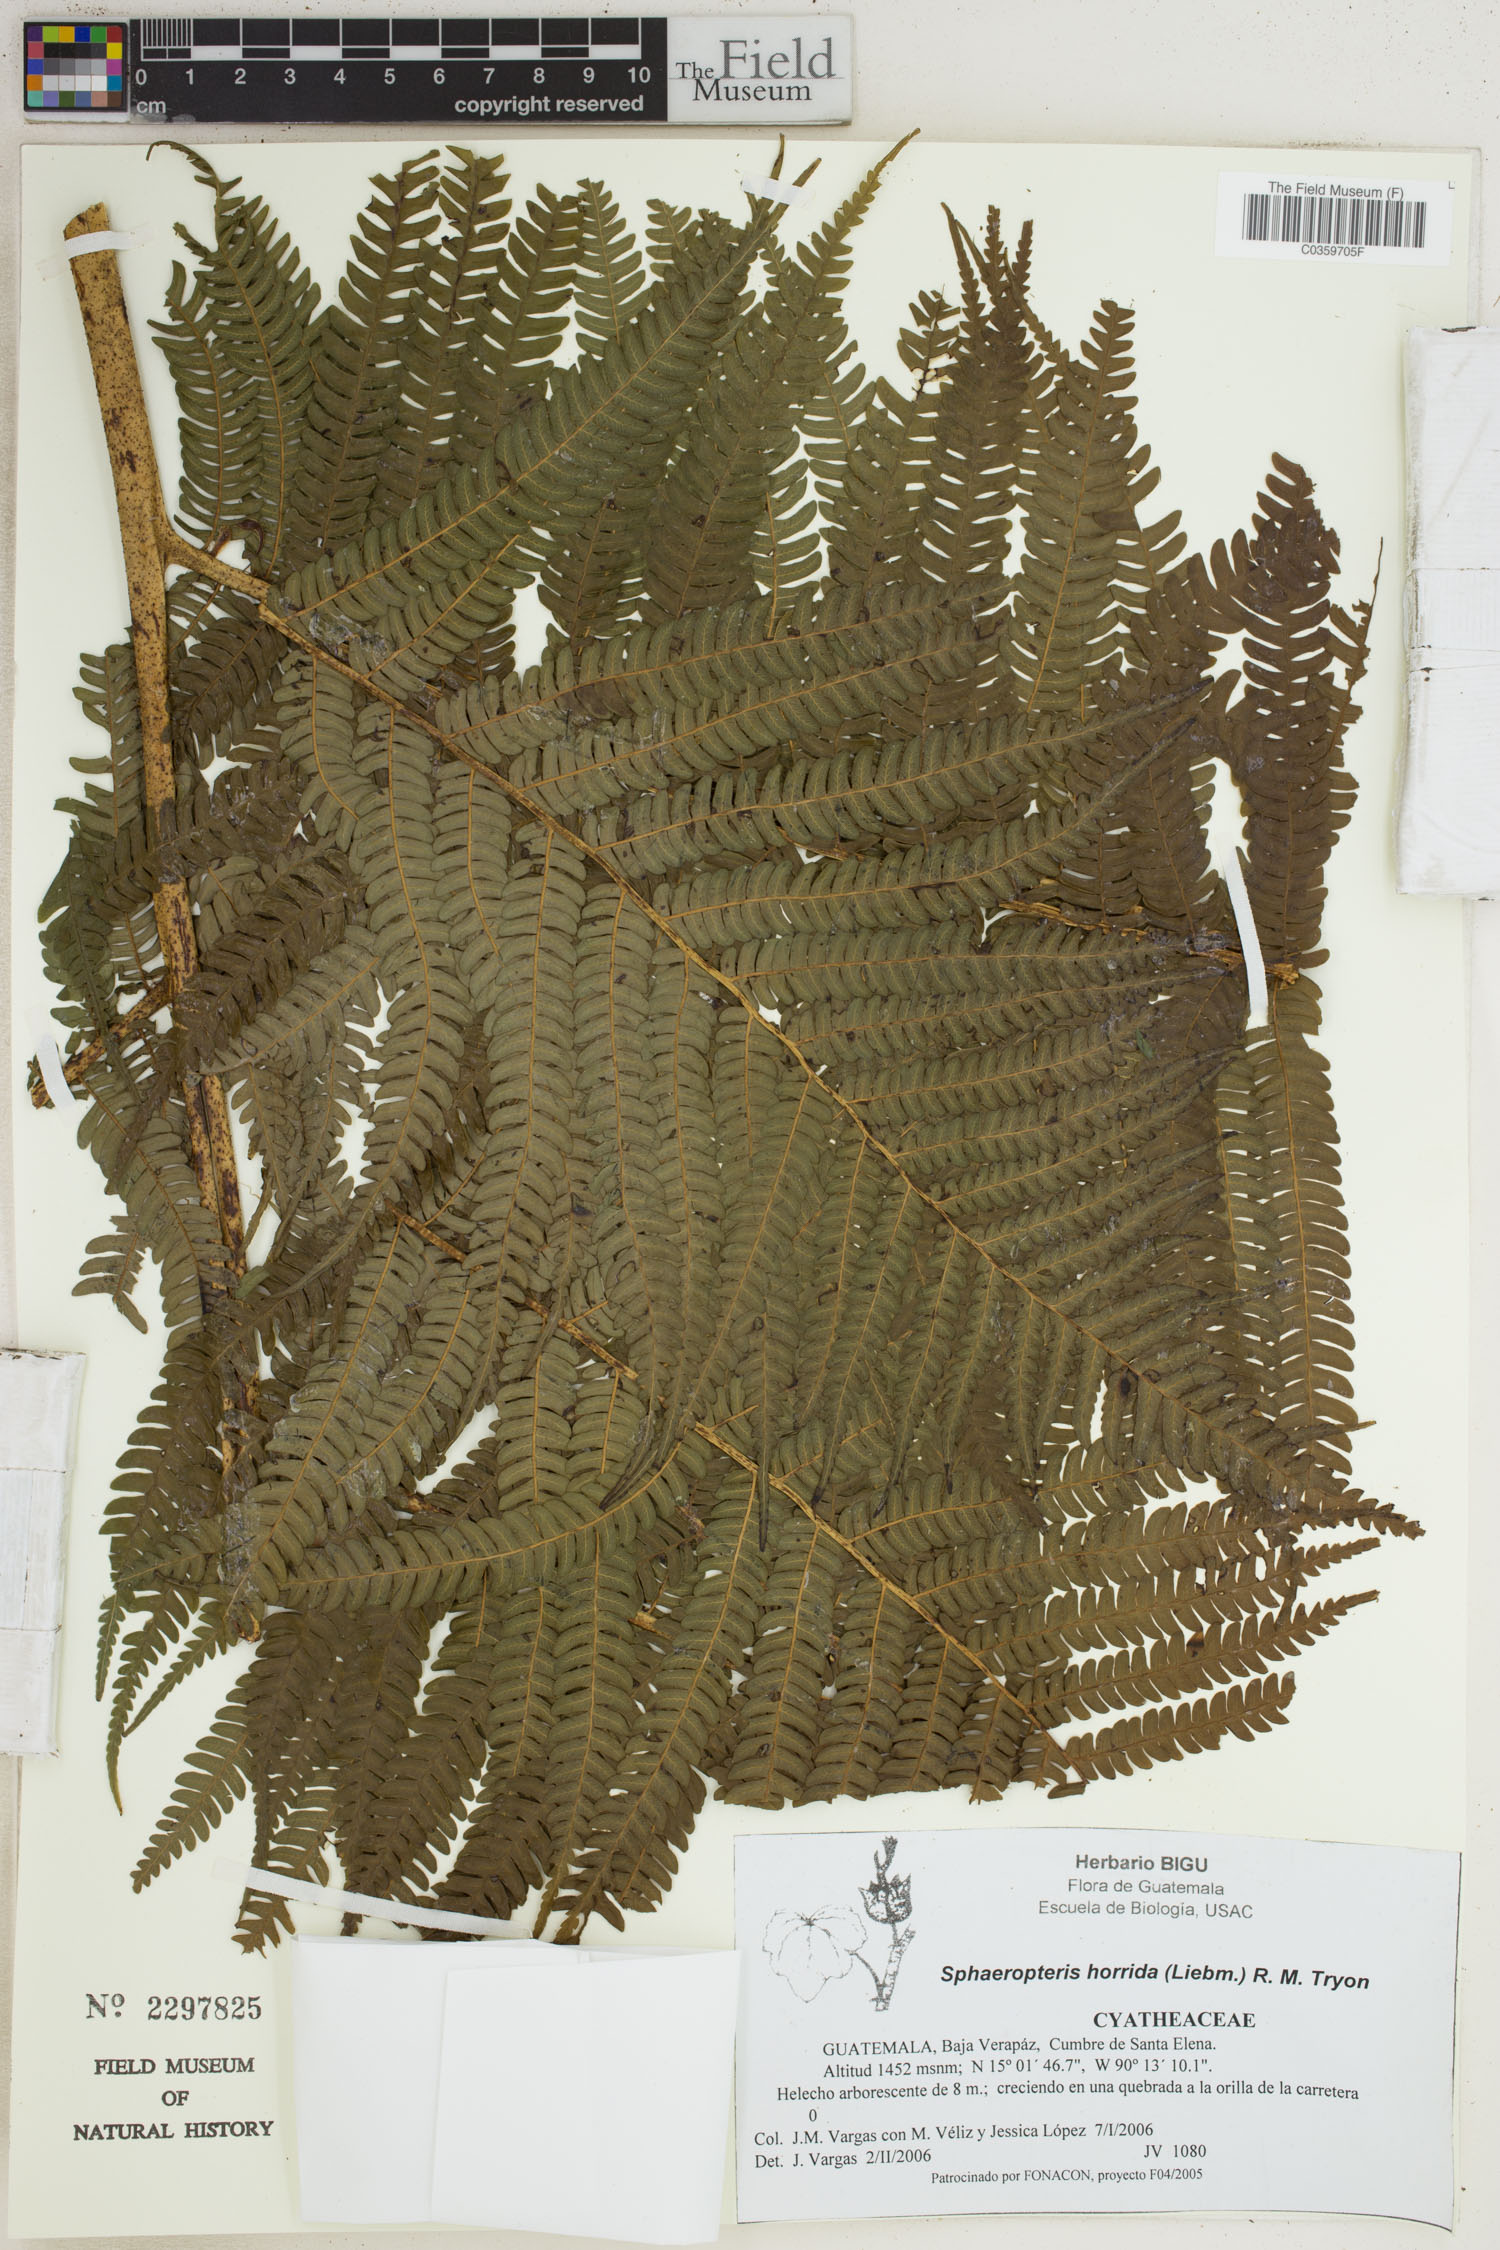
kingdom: Plantae
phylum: Tracheophyta
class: Polypodiopsida
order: Cyatheales
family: Cyatheaceae
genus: Sphaeropteris
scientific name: Sphaeropteris horrida
